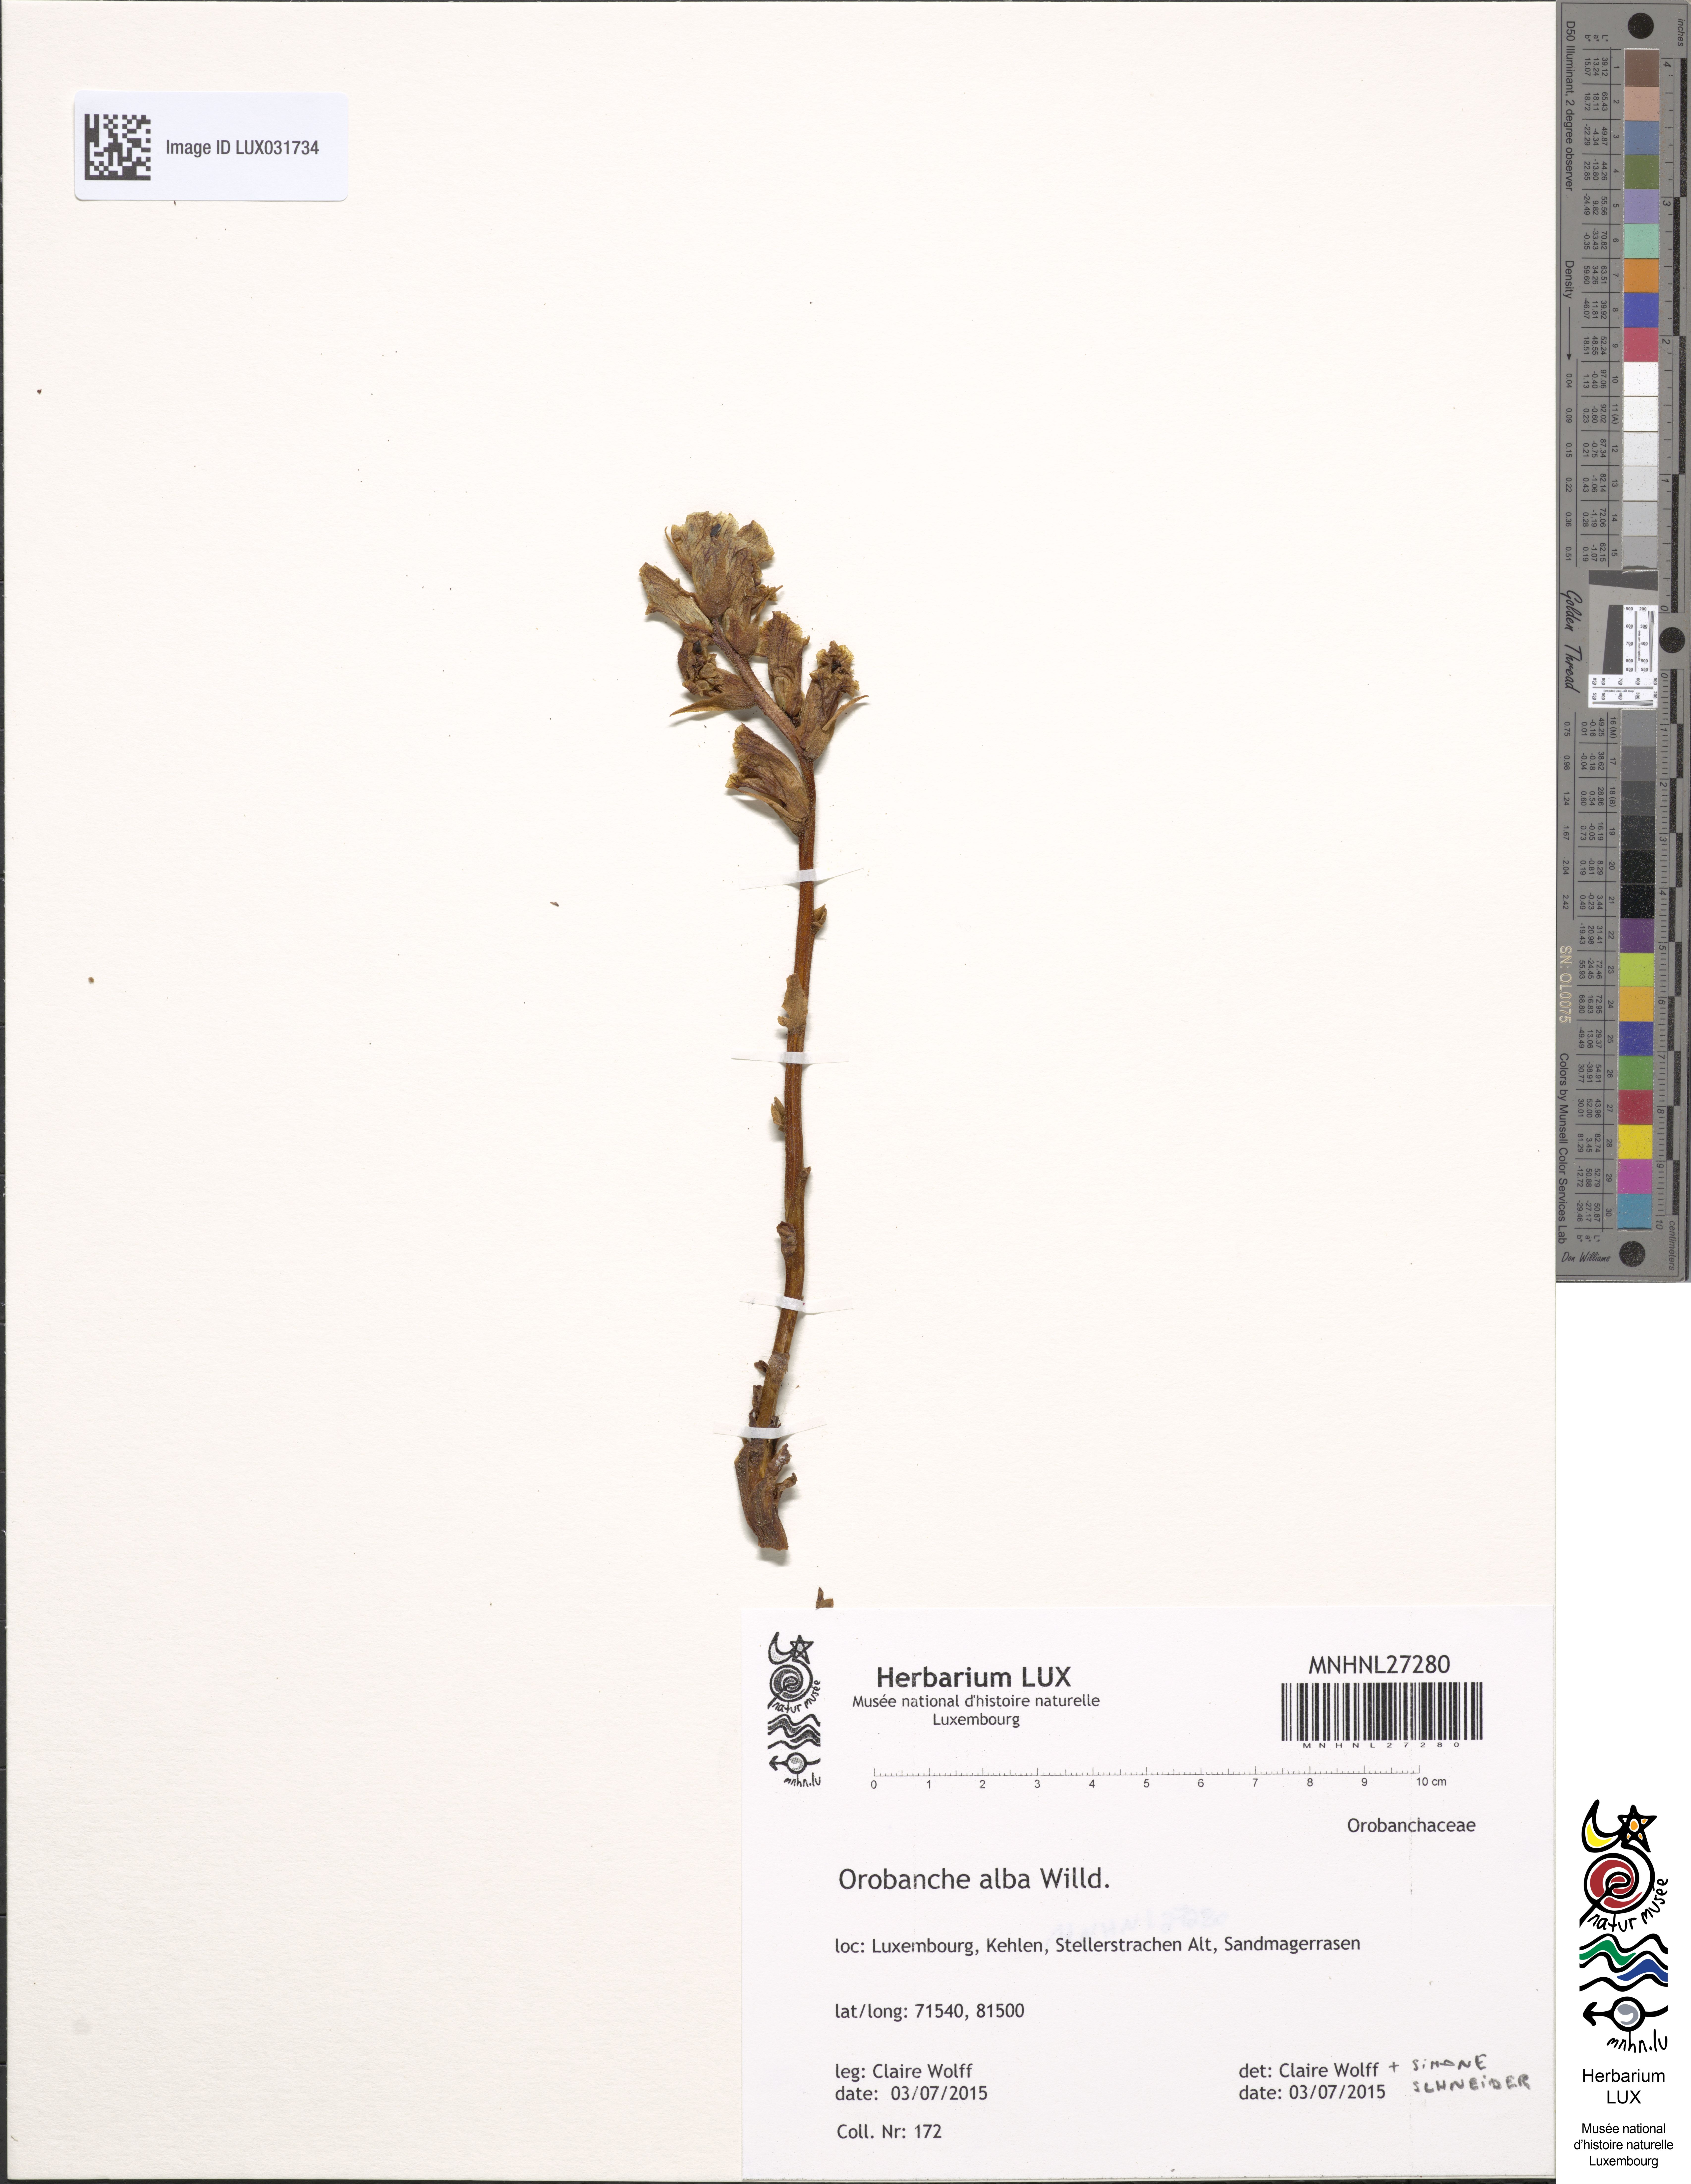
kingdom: Plantae
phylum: Tracheophyta
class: Magnoliopsida
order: Lamiales
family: Orobanchaceae
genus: Orobanche
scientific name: Orobanche alba
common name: Thyme broomrape
